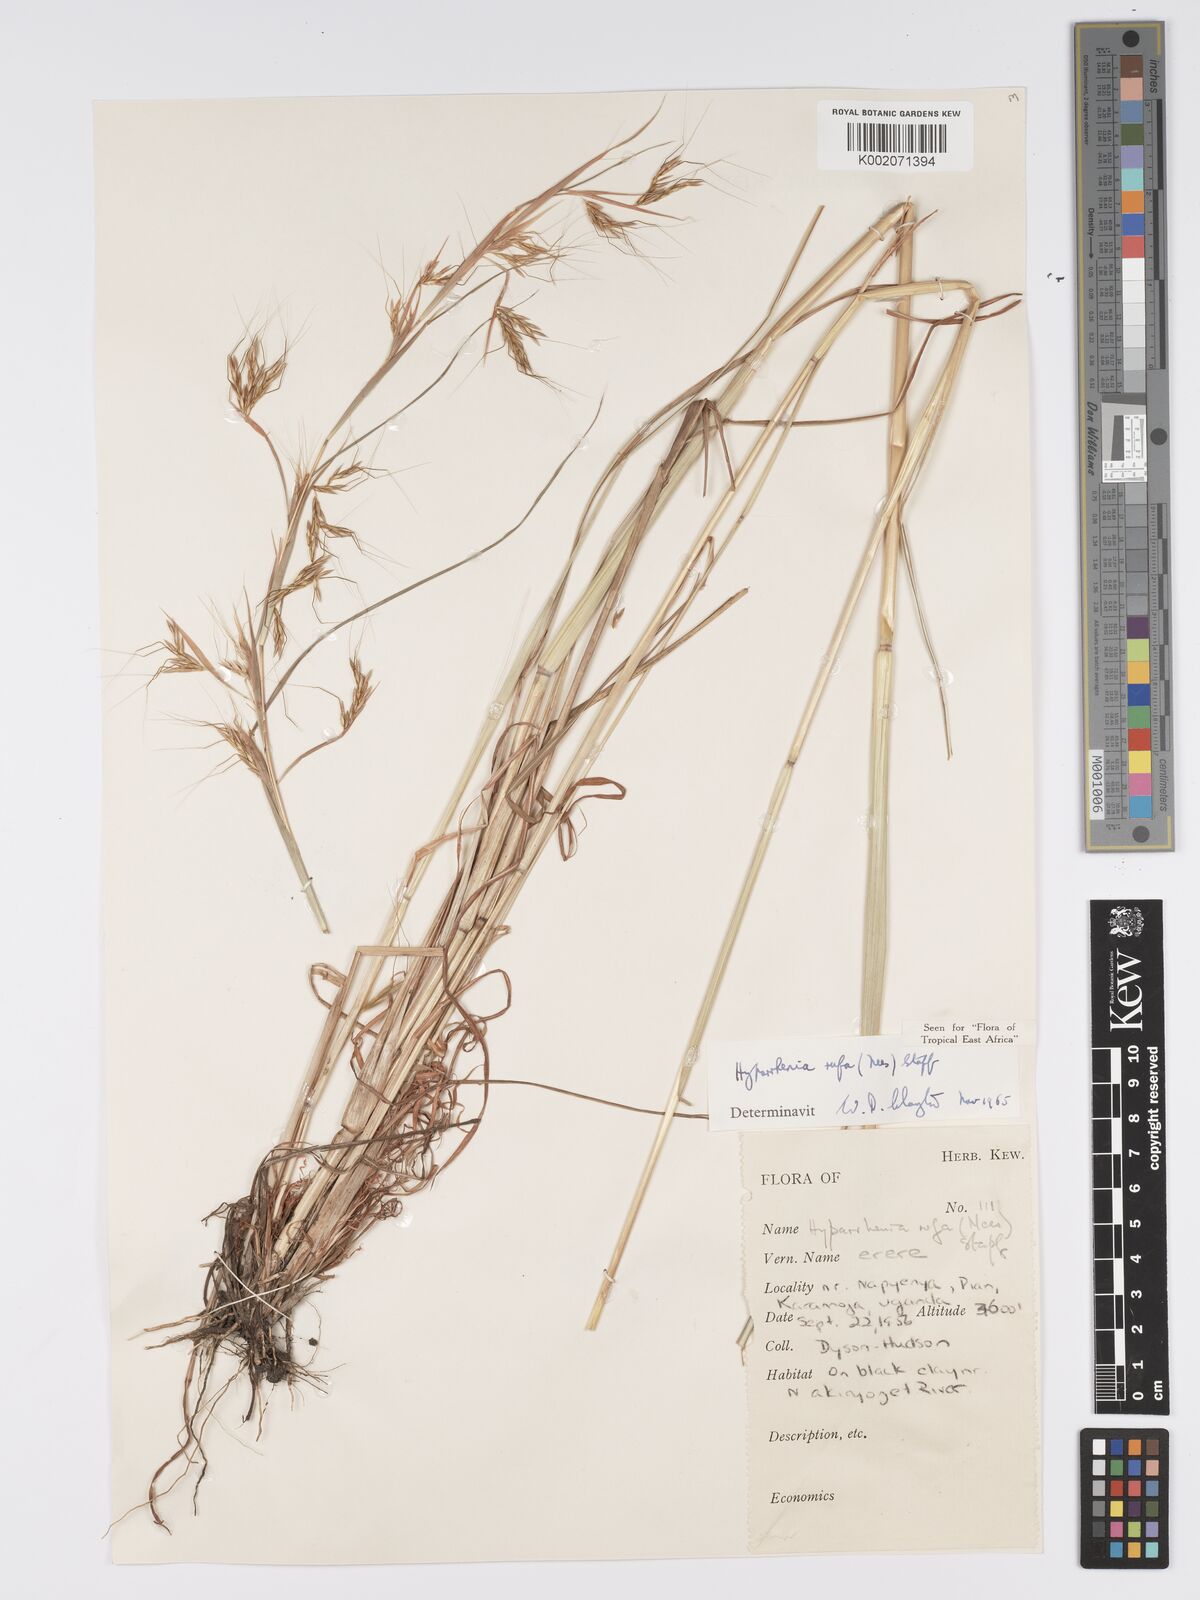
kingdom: Plantae
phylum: Tracheophyta
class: Liliopsida
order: Poales
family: Poaceae
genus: Hyparrhenia
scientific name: Hyparrhenia rufa
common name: Jaraguagrass
